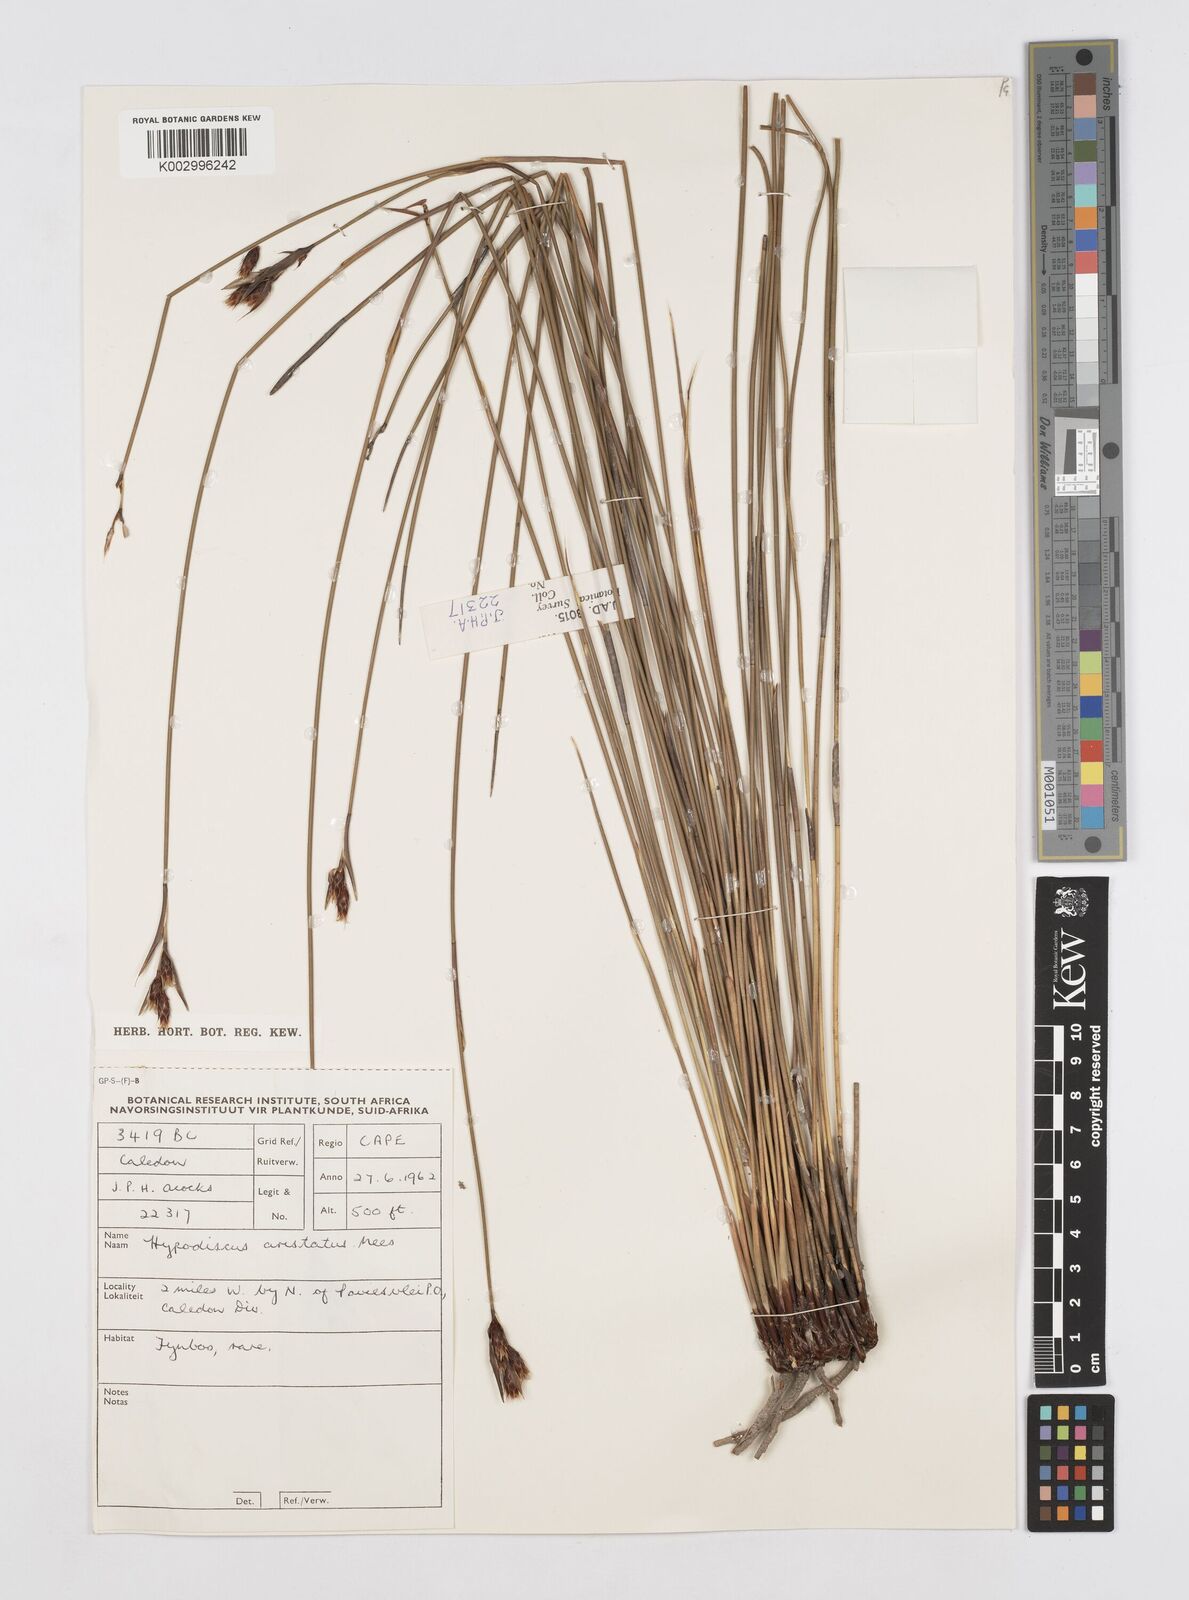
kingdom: Plantae
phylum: Tracheophyta
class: Liliopsida
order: Poales
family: Restionaceae
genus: Hypodiscus
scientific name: Hypodiscus alboaristatus
